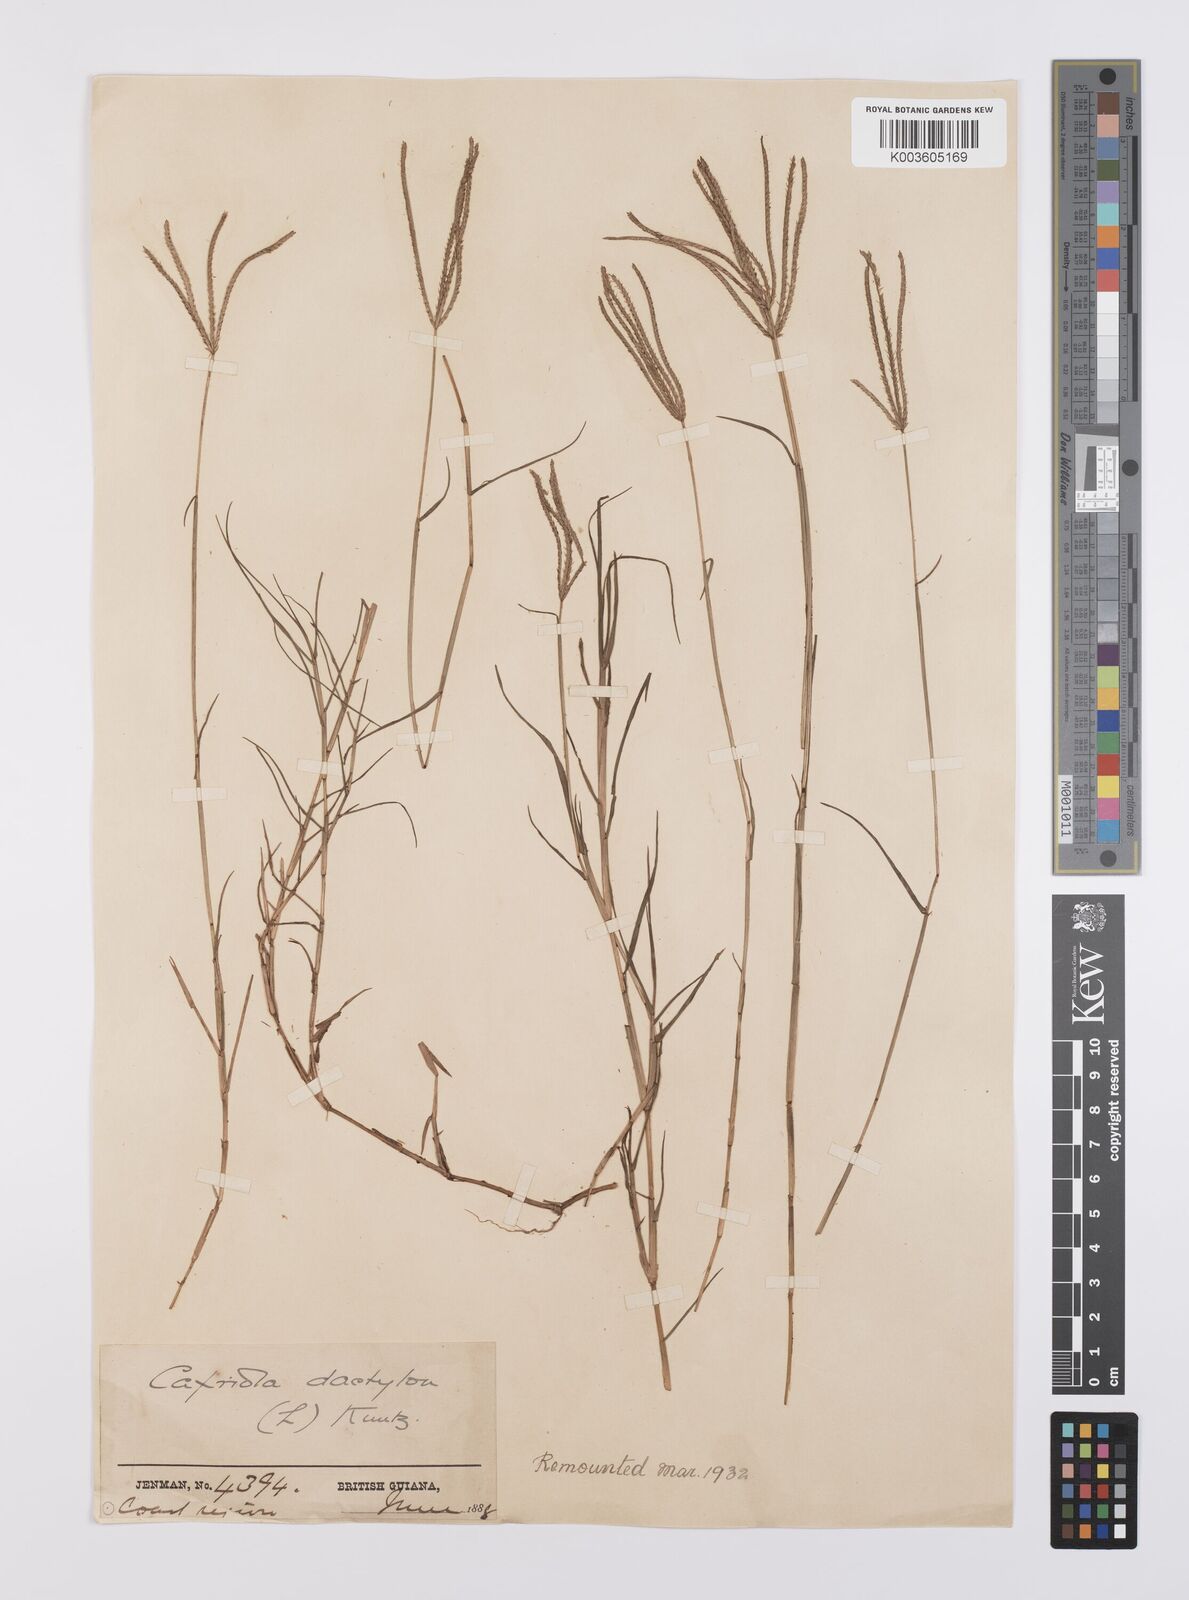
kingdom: Plantae
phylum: Tracheophyta
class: Liliopsida
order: Poales
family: Poaceae
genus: Cynodon
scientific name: Cynodon dactylon
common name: Bermuda grass
